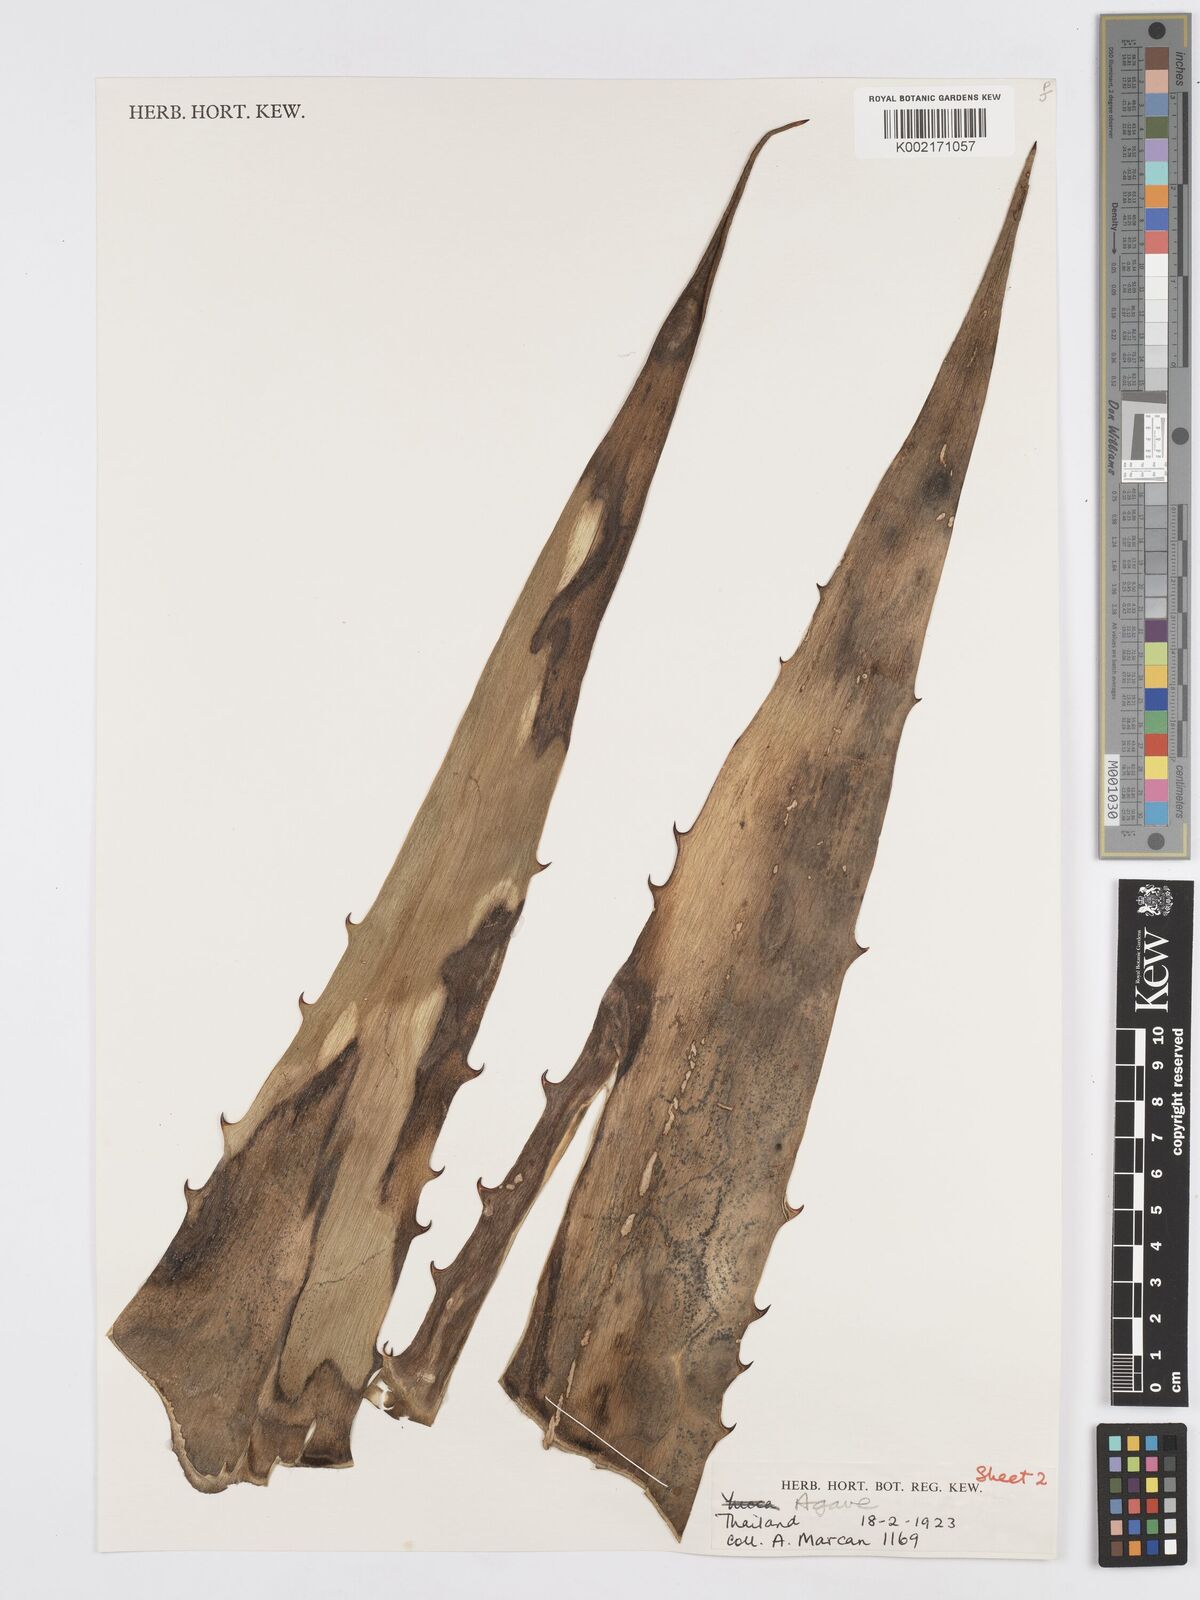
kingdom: Plantae
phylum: Tracheophyta
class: Liliopsida
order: Asparagales
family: Asparagaceae
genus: Agave
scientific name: Agave
